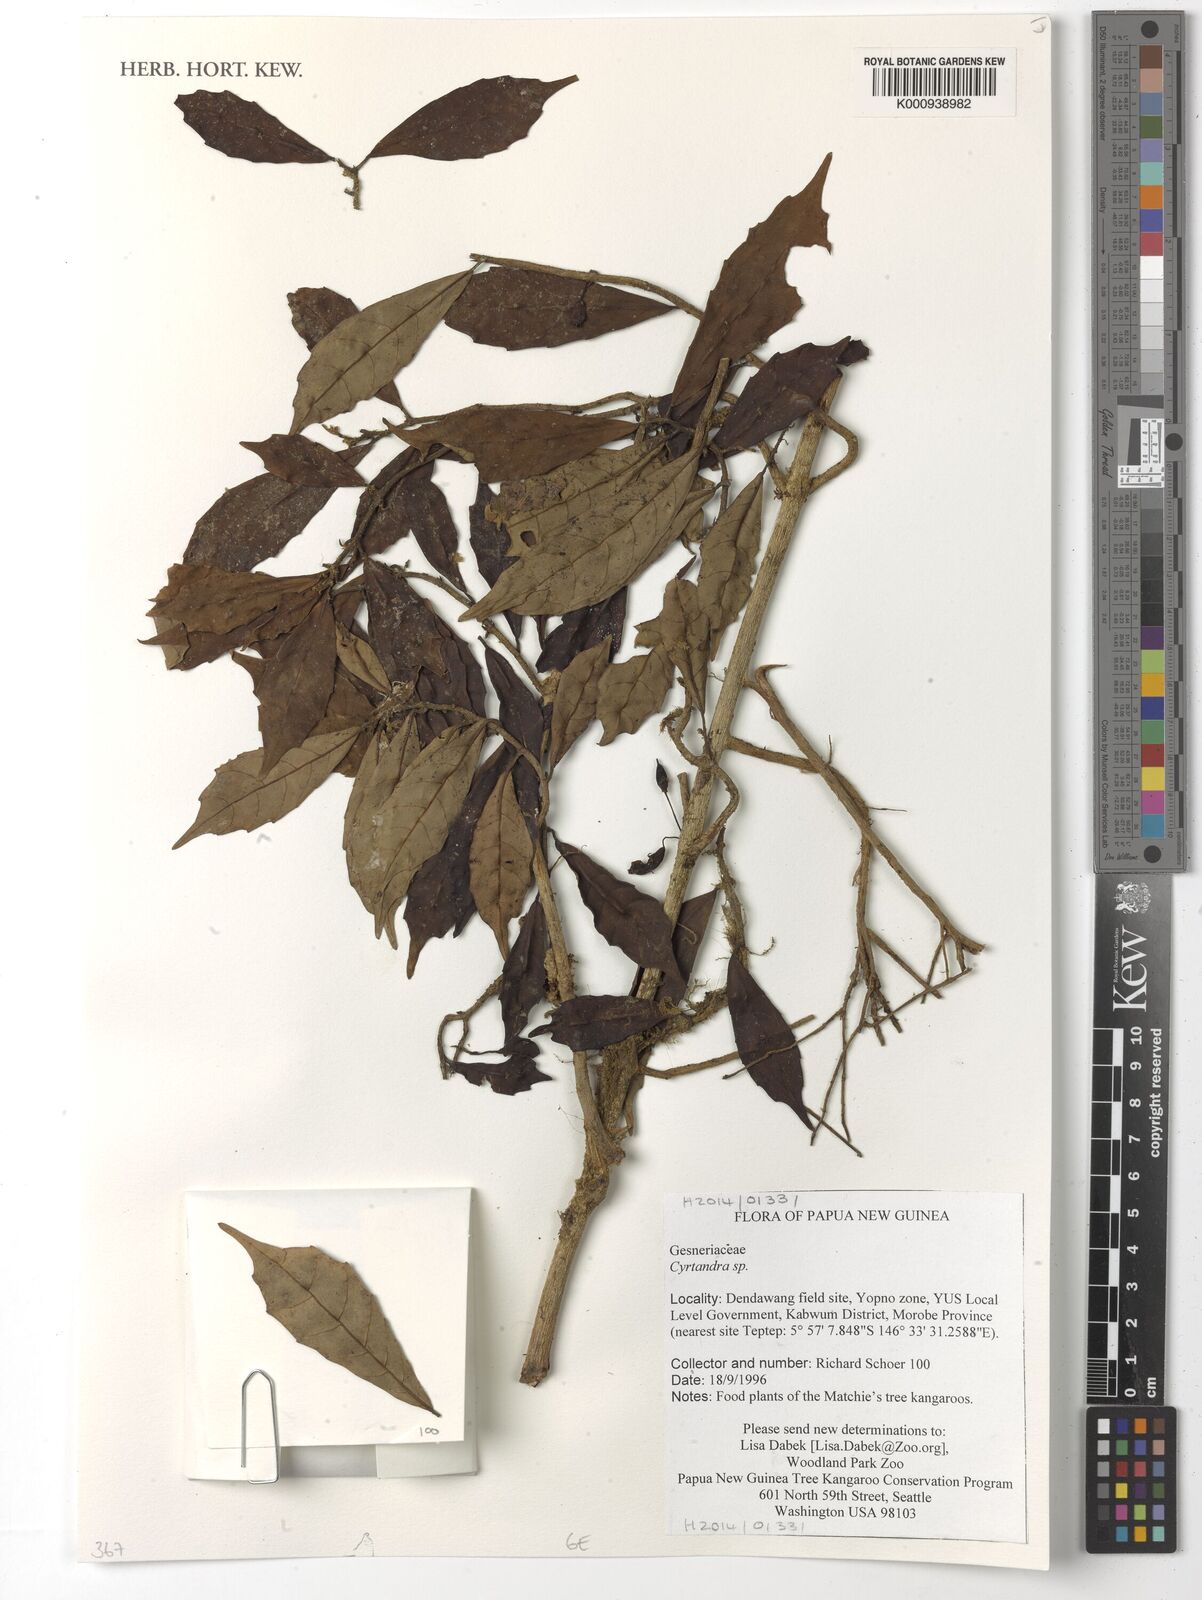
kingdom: Plantae
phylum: Tracheophyta
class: Magnoliopsida
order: Lamiales
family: Gesneriaceae
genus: Cyrtandra
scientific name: Cyrtandra
